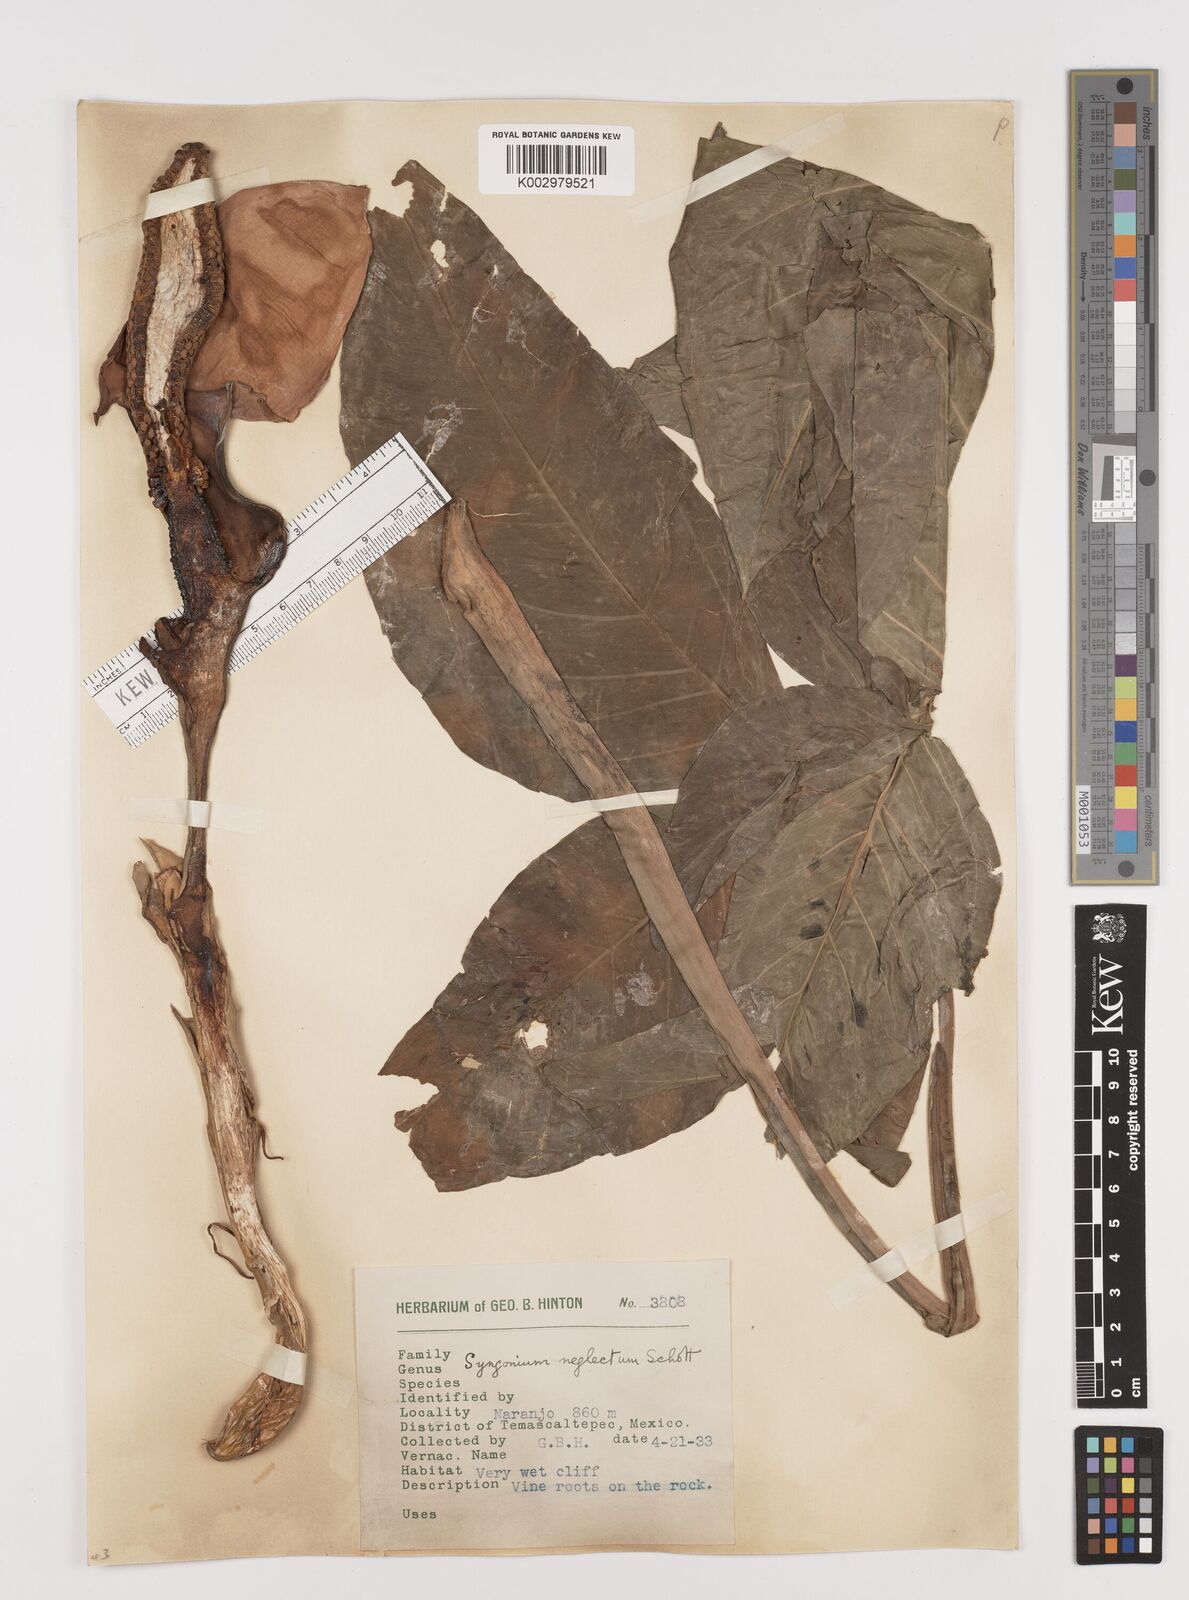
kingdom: Plantae
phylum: Tracheophyta
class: Liliopsida
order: Alismatales
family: Araceae
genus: Syngonium
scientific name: Syngonium neglectum
